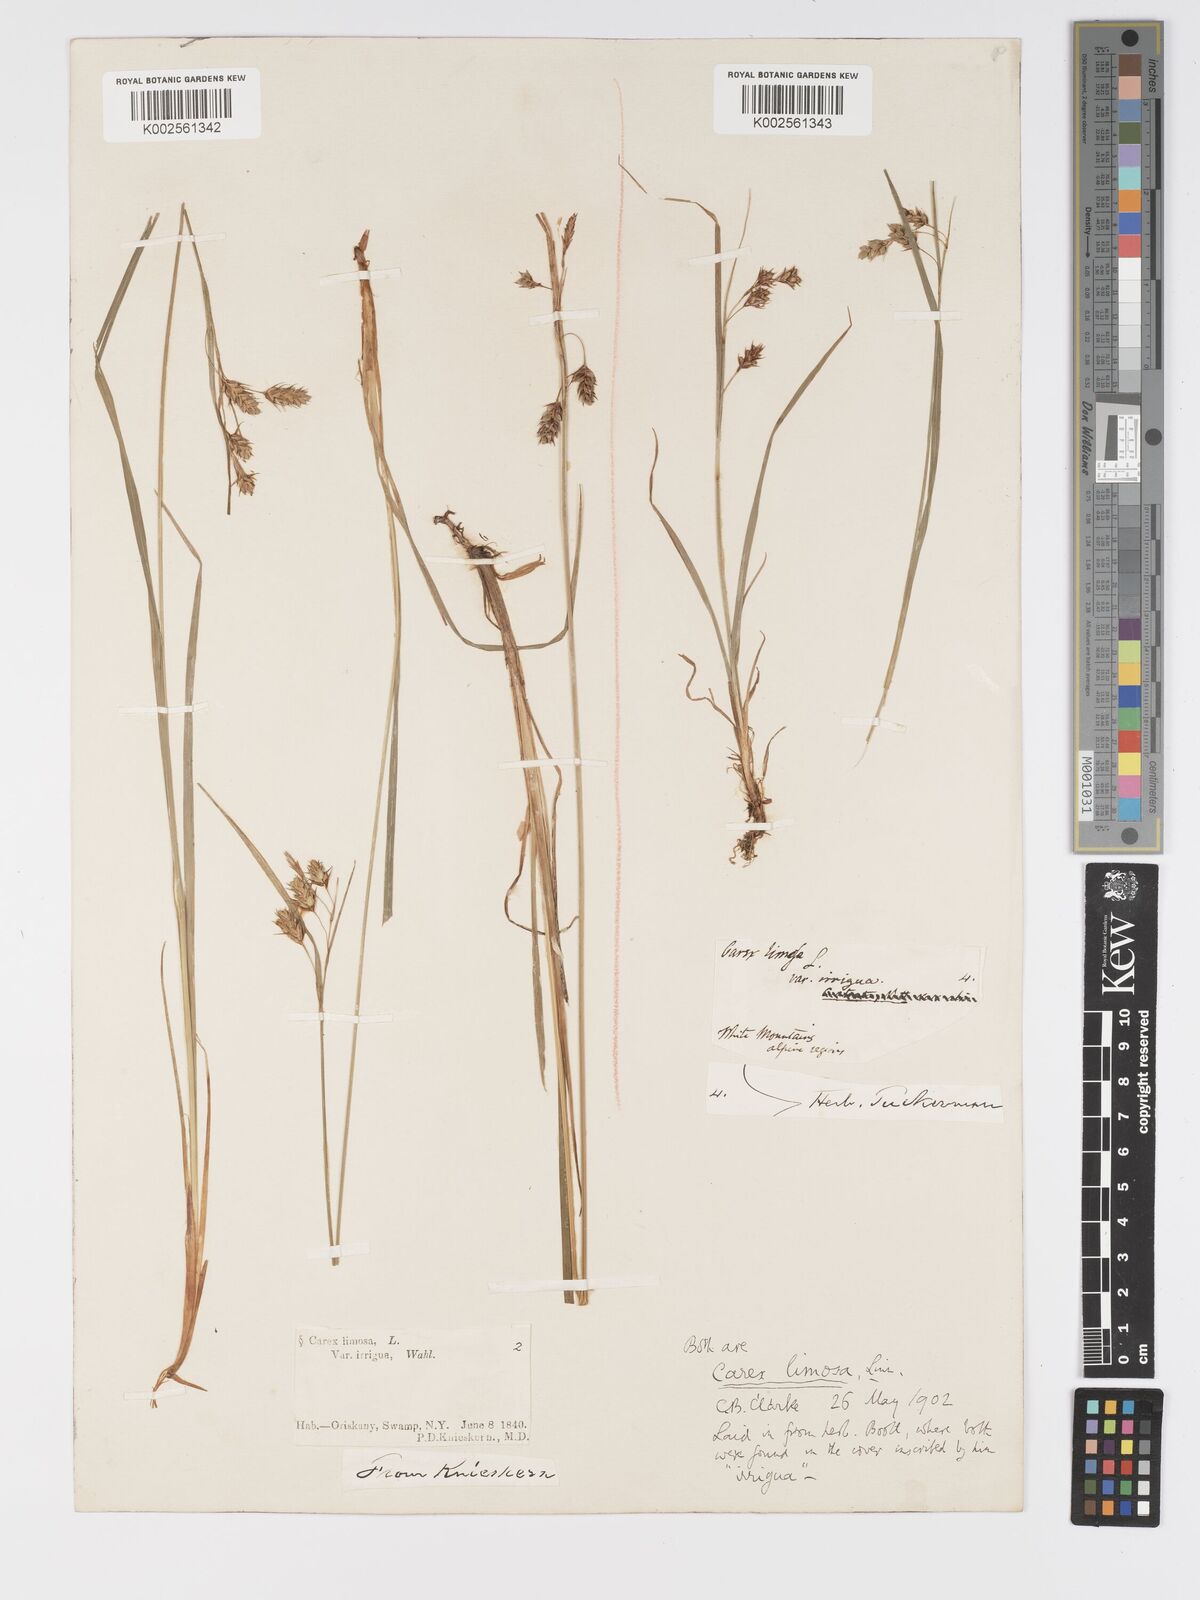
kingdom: Plantae
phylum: Tracheophyta
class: Liliopsida
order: Poales
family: Cyperaceae
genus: Carex
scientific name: Carex magellanica
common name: Bog sedge
